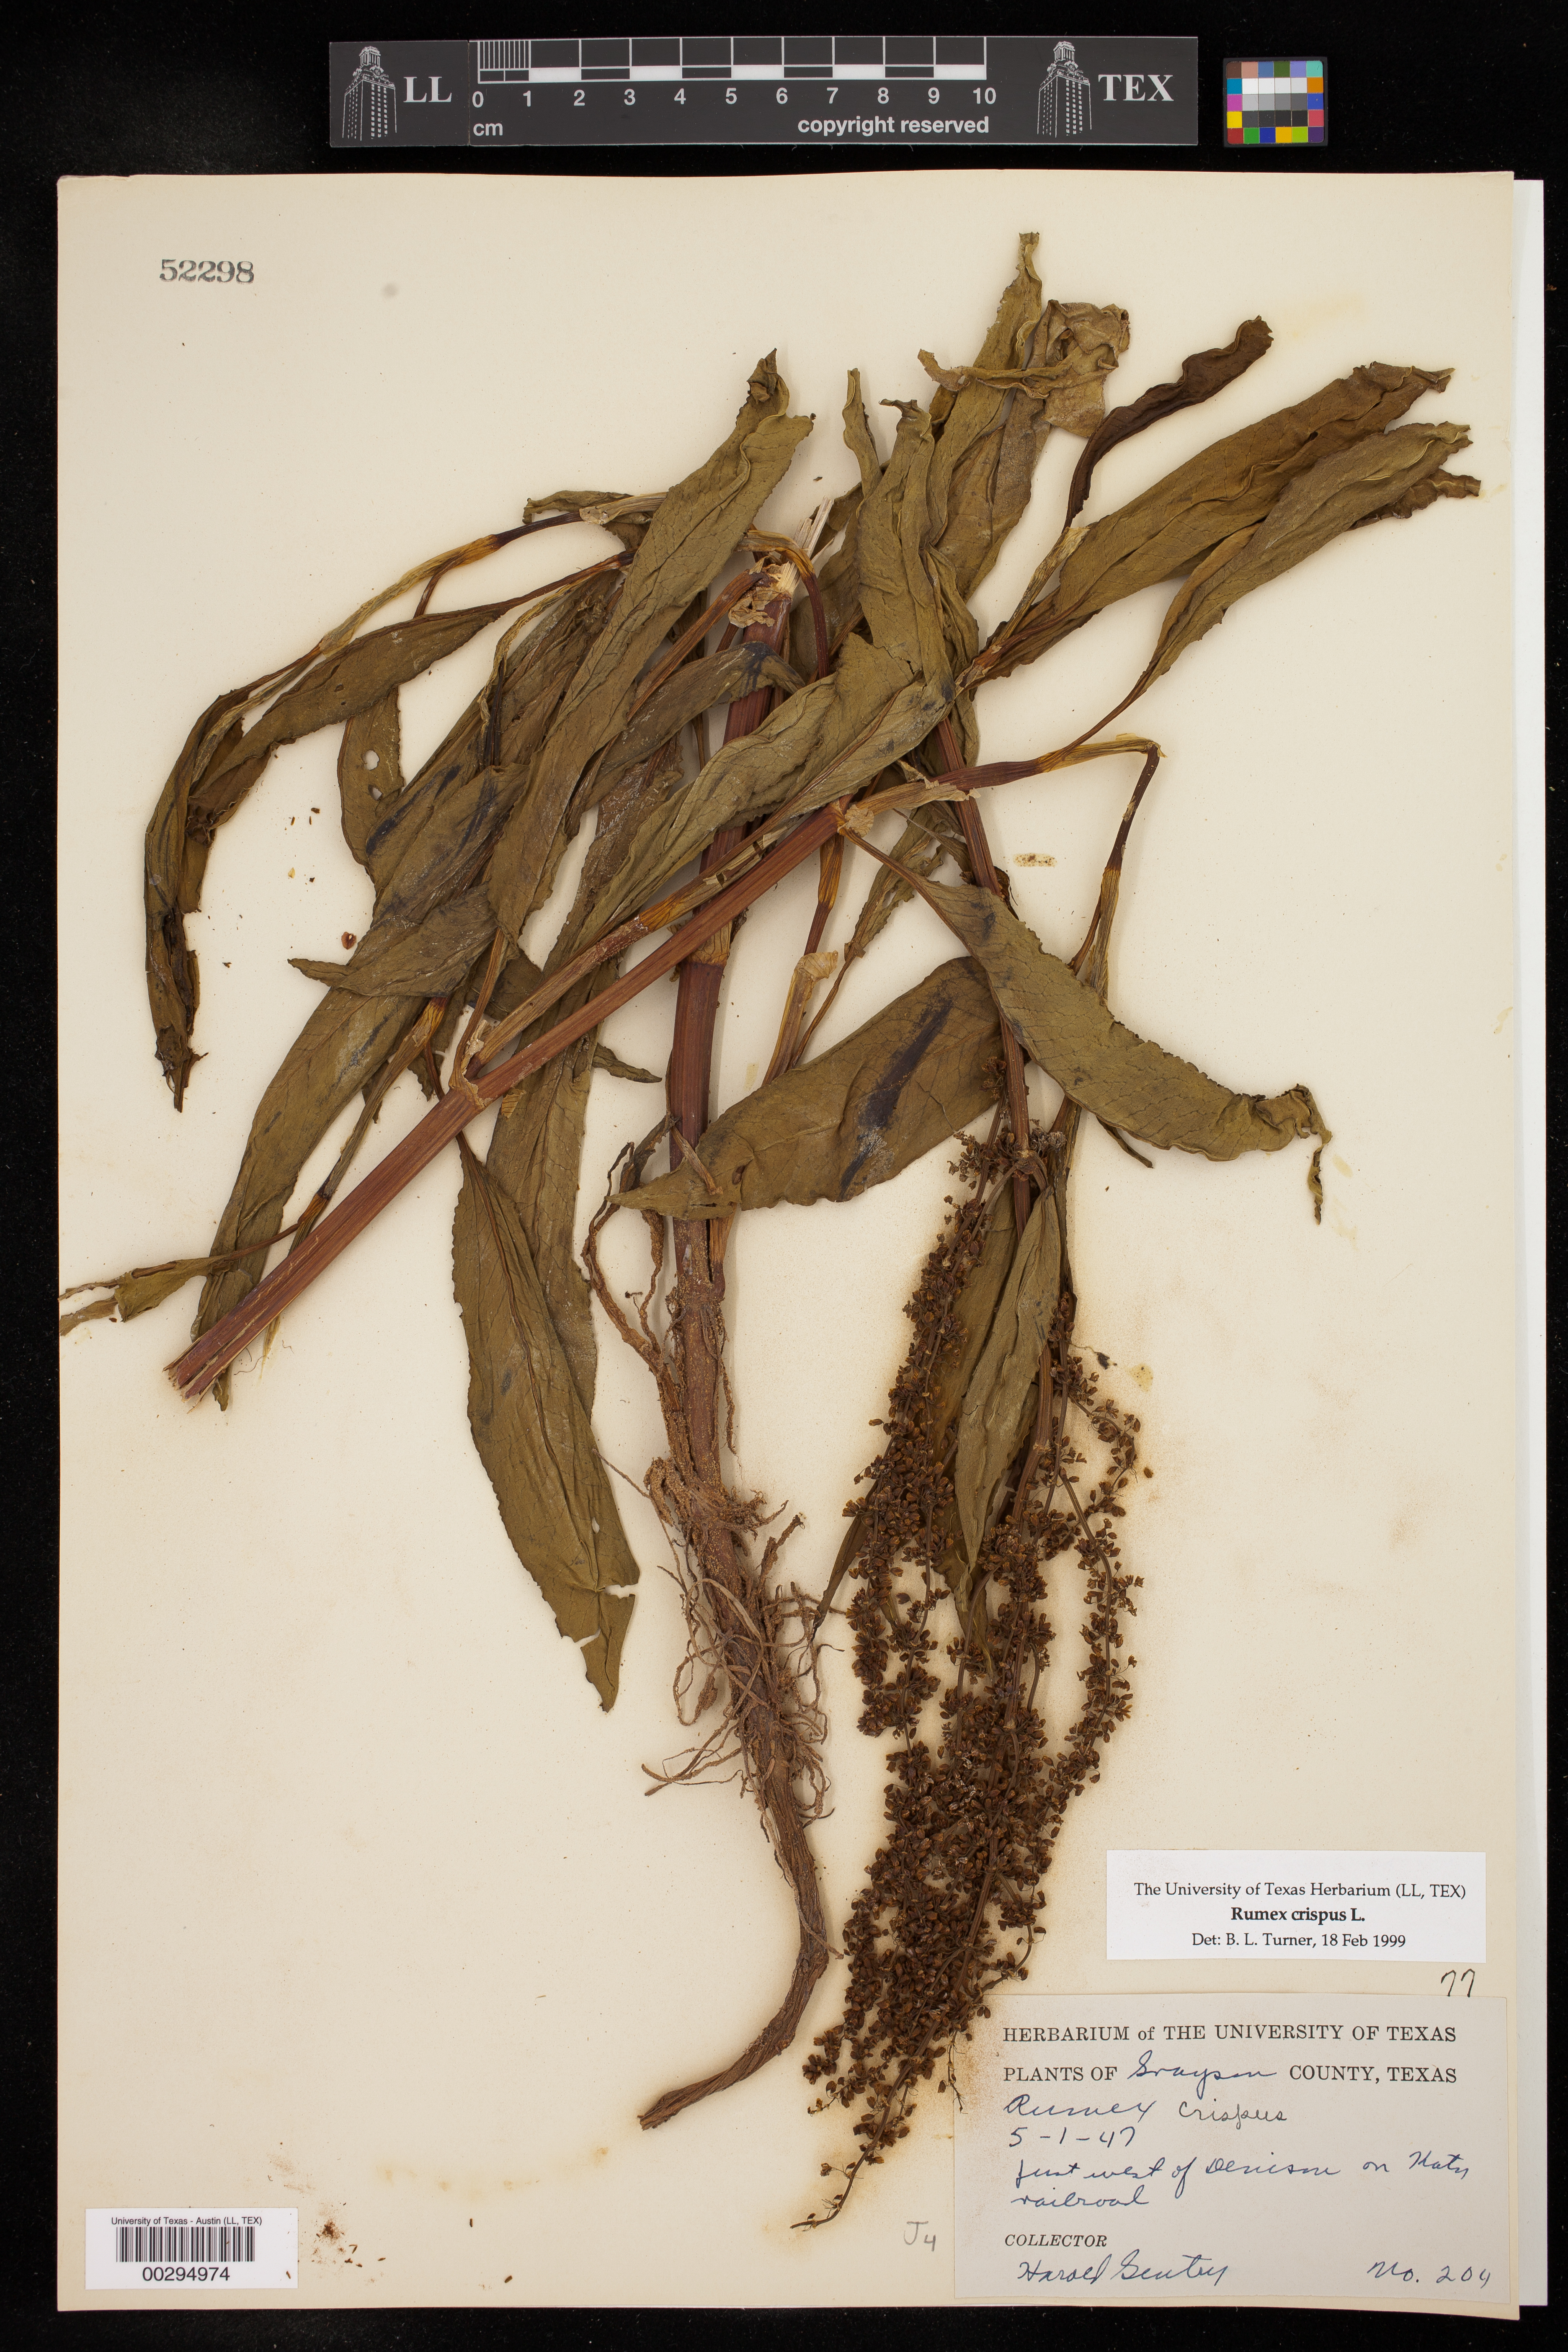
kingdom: Plantae
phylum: Tracheophyta
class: Magnoliopsida
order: Caryophyllales
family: Polygonaceae
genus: Rumex
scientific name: Rumex crispus
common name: Curled dock
